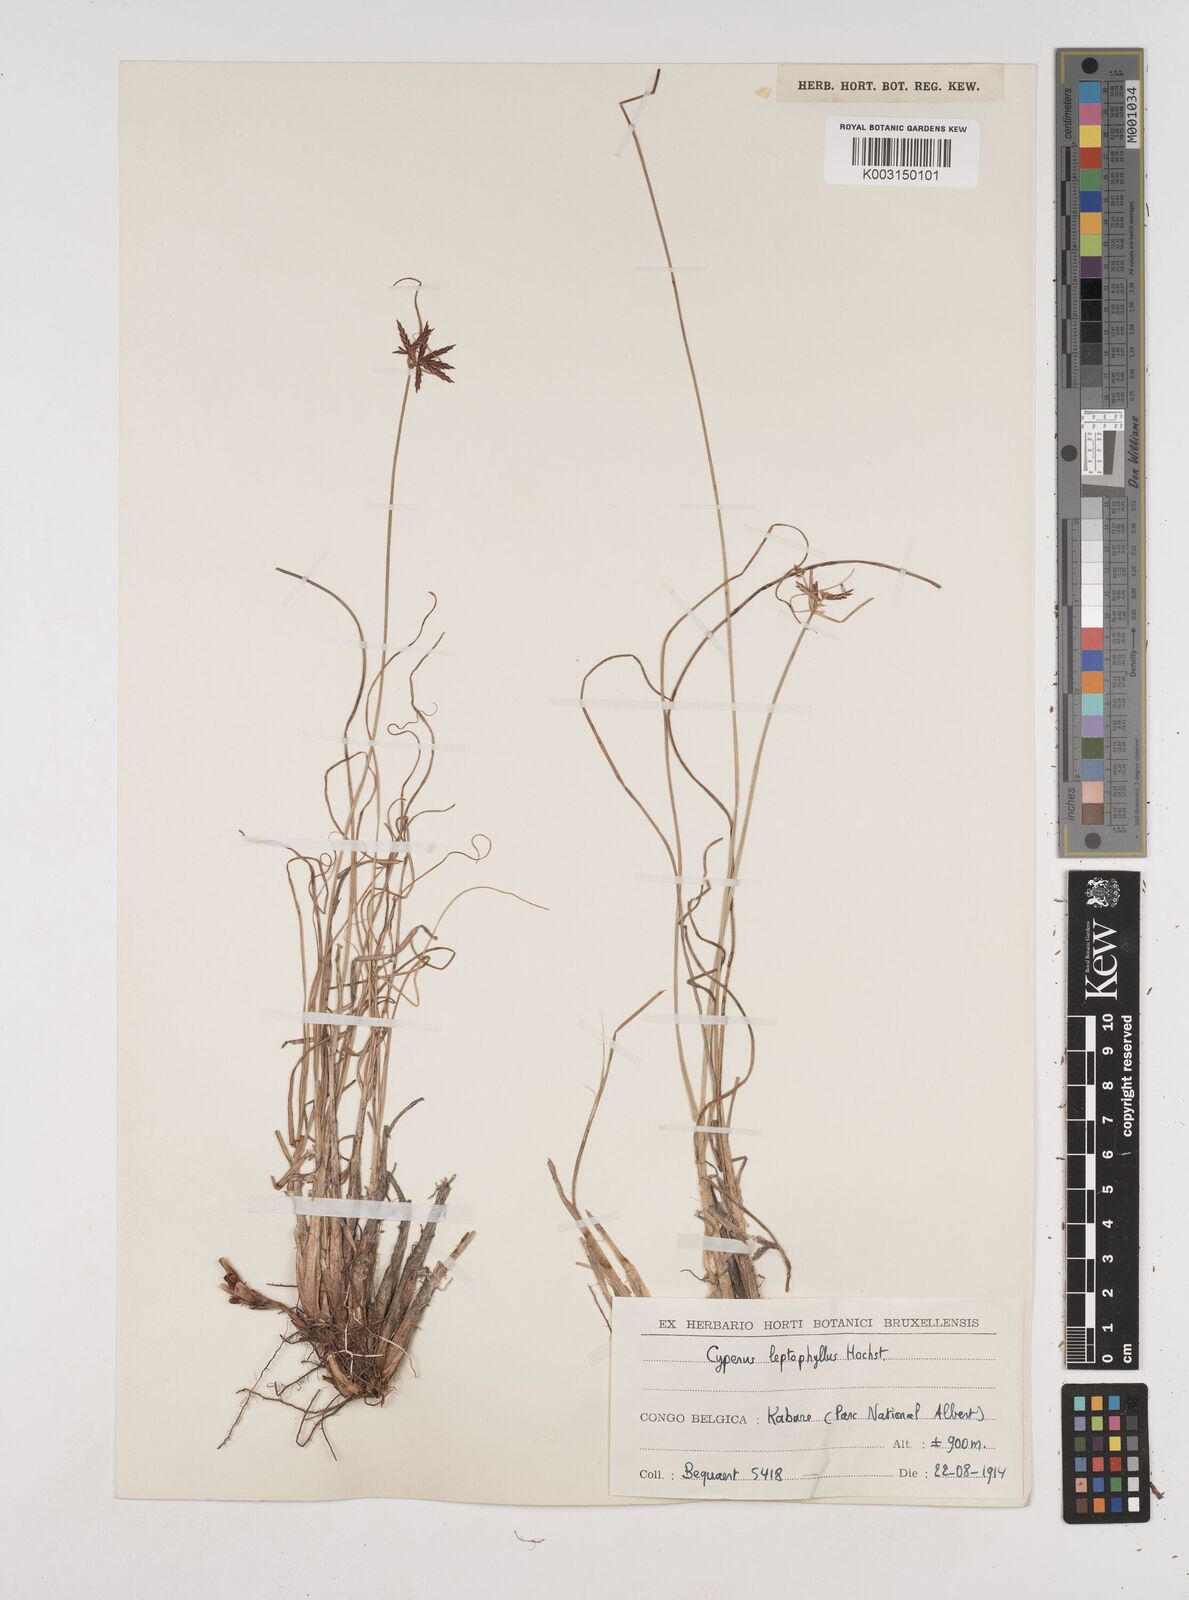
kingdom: Plantae
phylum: Tracheophyta
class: Liliopsida
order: Poales
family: Cyperaceae
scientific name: Cyperaceae
